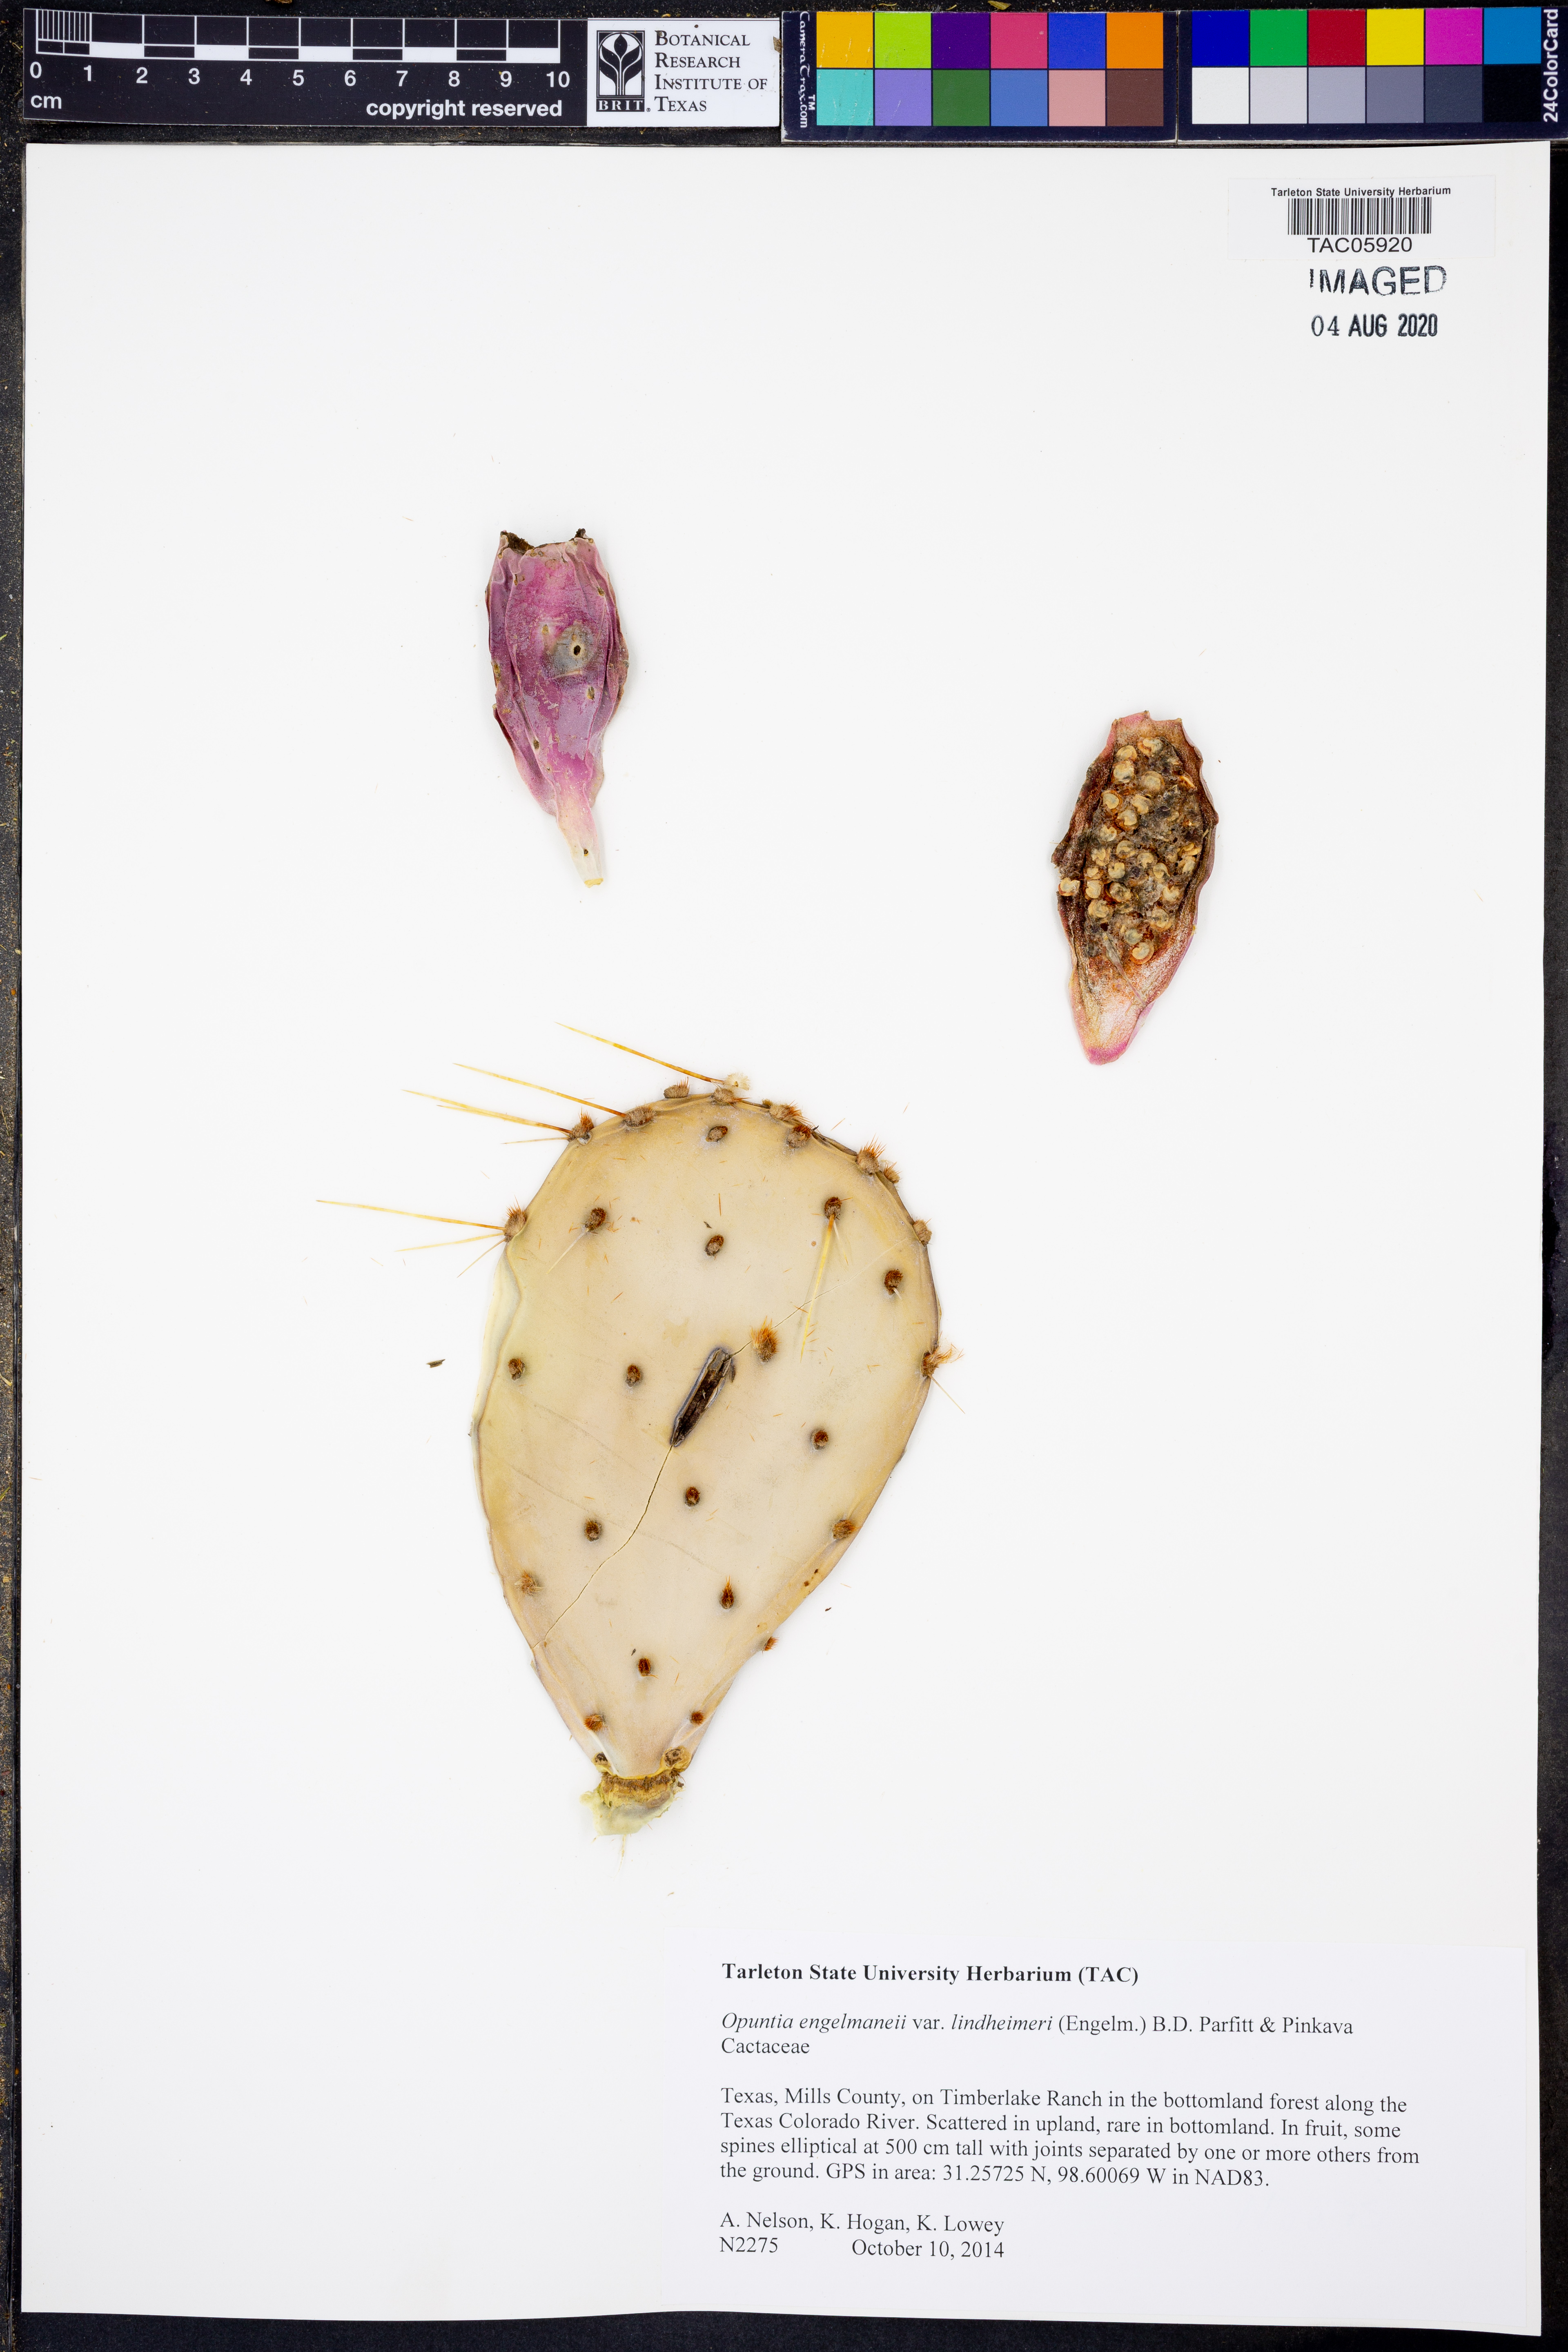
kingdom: Plantae
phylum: Tracheophyta
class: Magnoliopsida
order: Caryophyllales
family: Cactaceae
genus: Opuntia
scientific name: Opuntia engelmannii
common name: Cactus-apple
